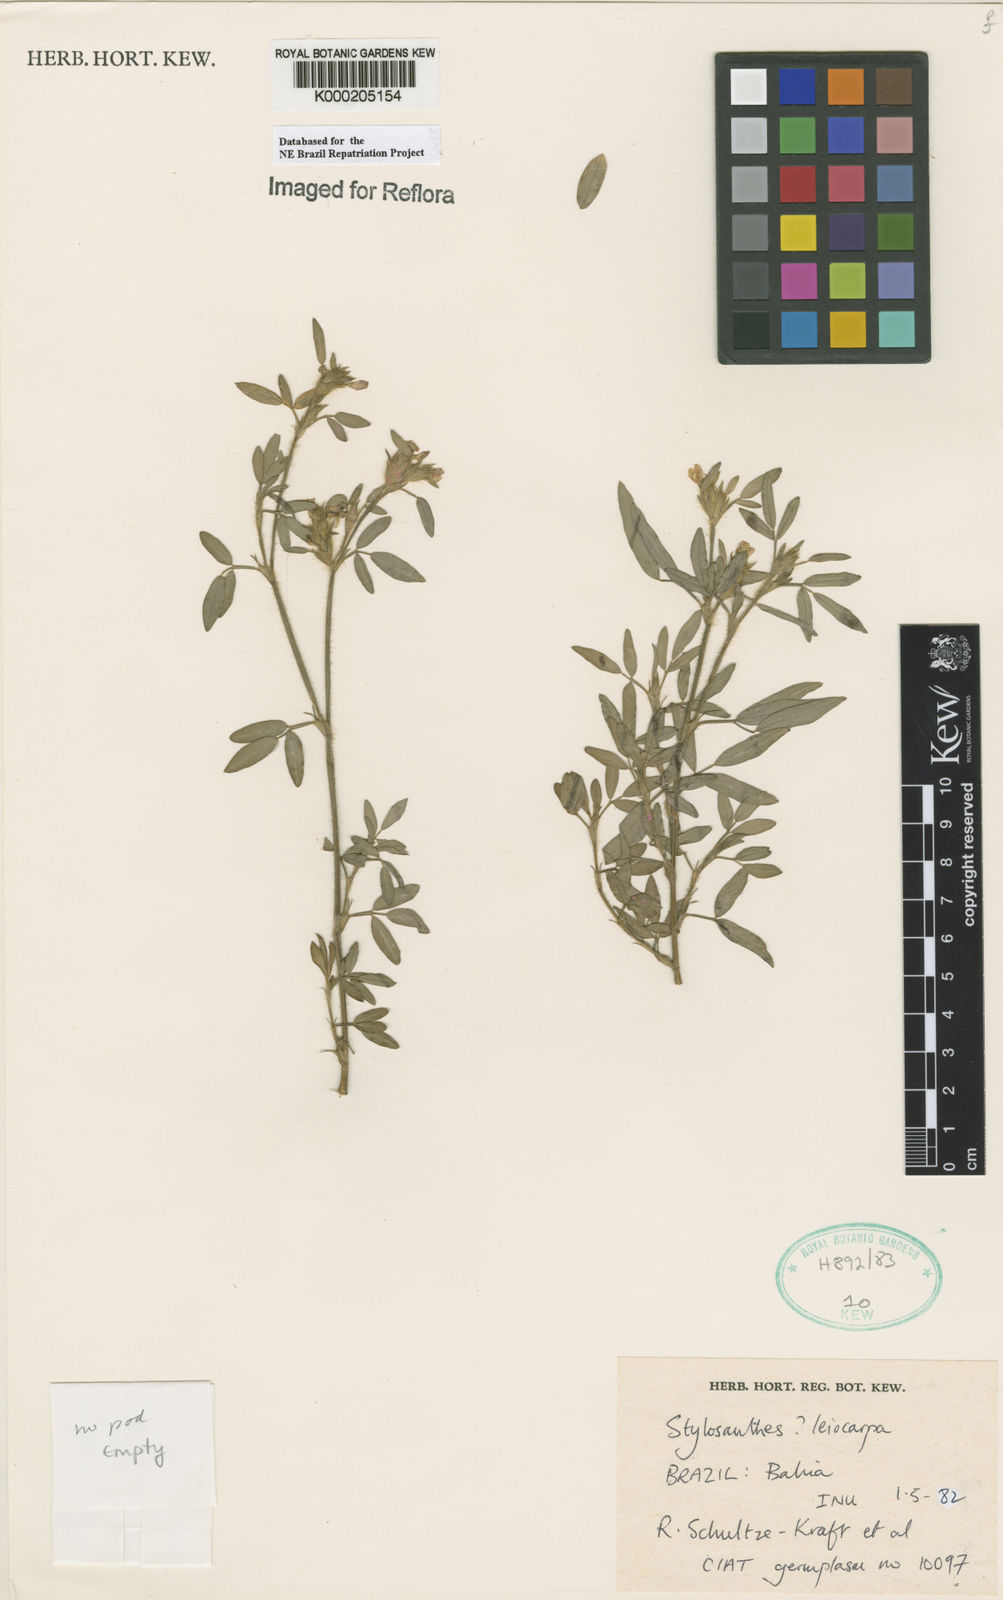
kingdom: Plantae
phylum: Tracheophyta
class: Magnoliopsida
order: Fabales
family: Fabaceae
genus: Stylosanthes
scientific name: Stylosanthes leiocarpa
